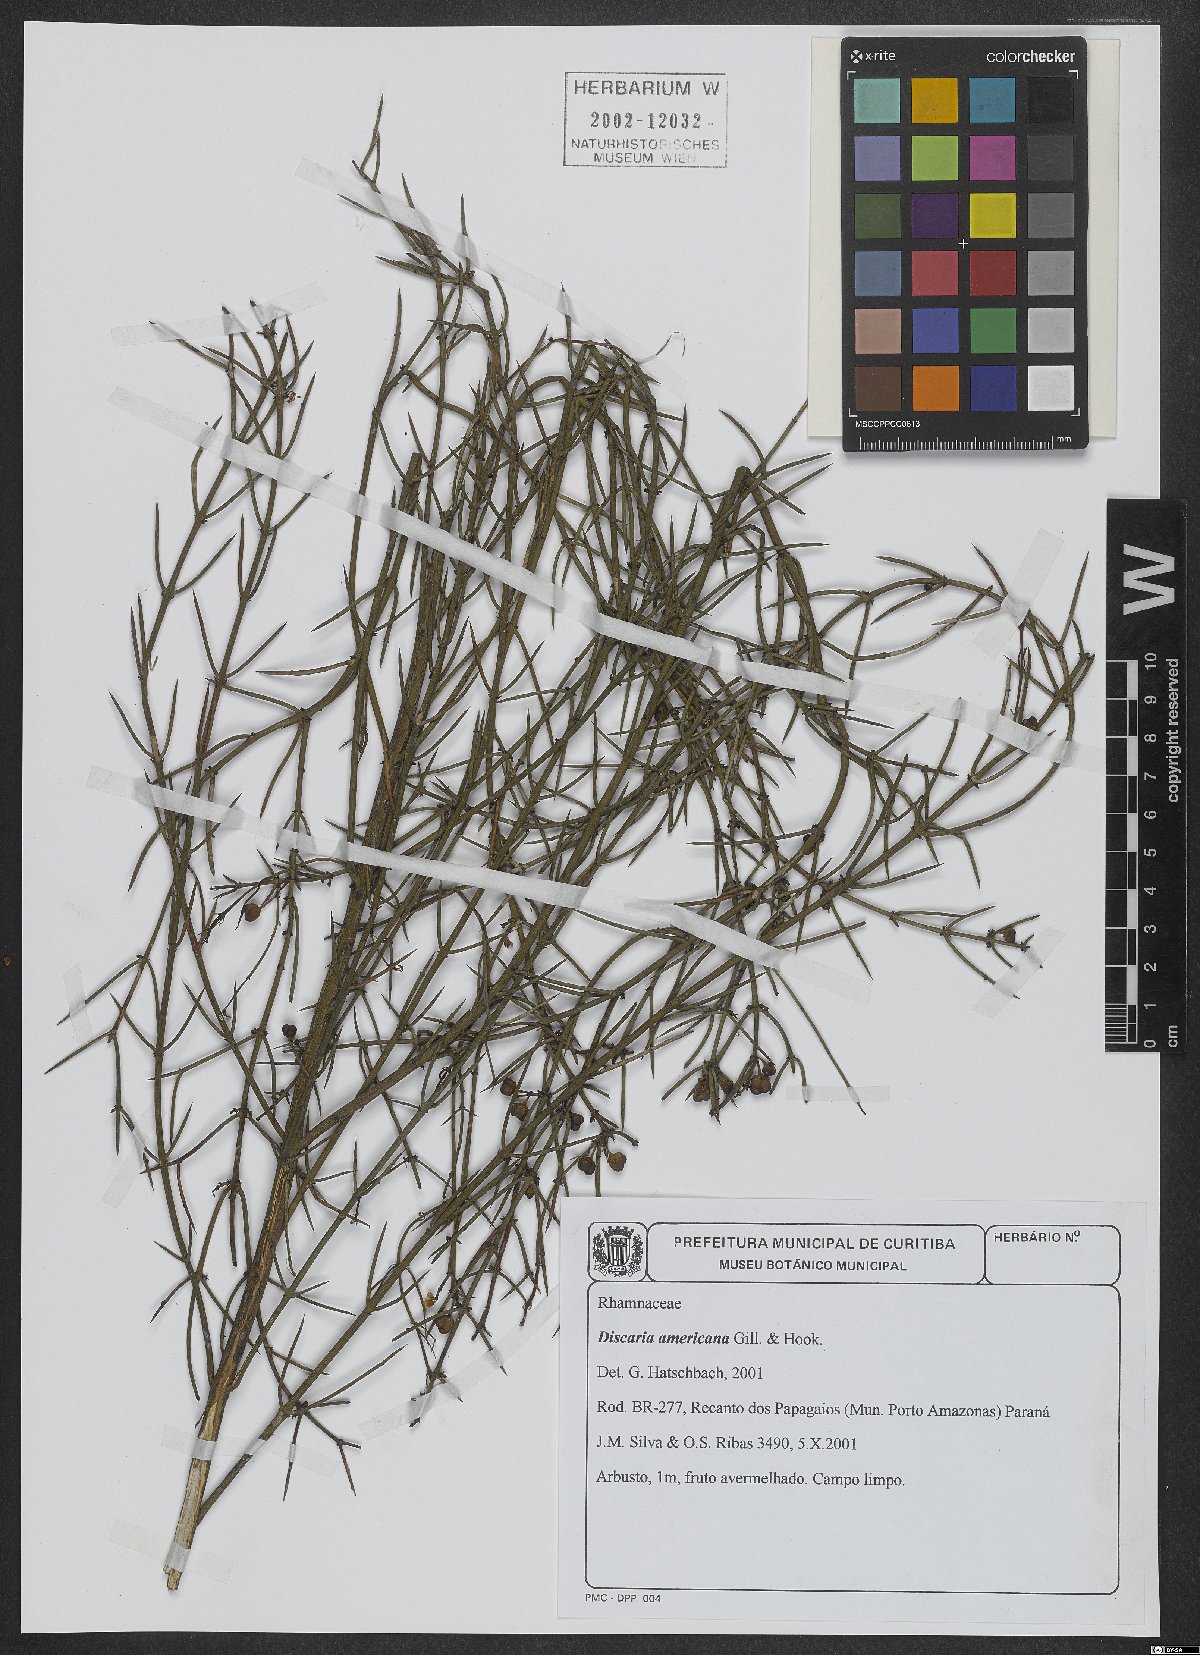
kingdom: Plantae
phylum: Tracheophyta
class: Magnoliopsida
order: Rosales
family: Rhamnaceae
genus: Discaria
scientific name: Discaria americana
